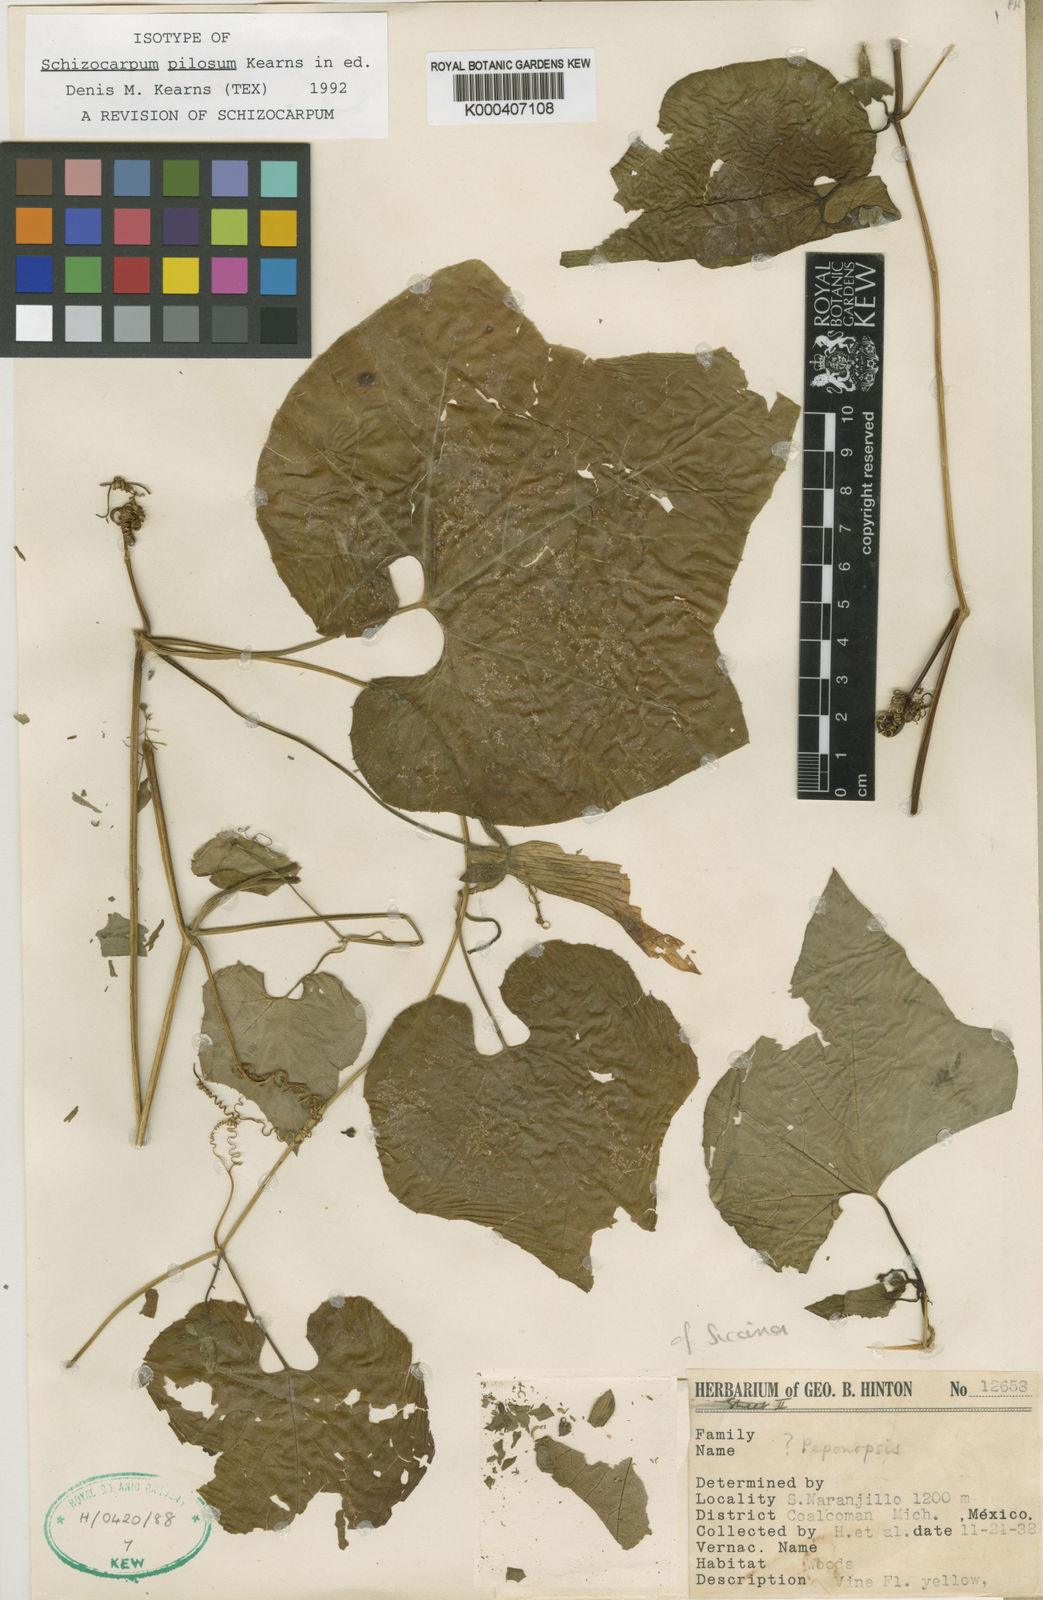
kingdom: Plantae
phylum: Tracheophyta
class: Magnoliopsida
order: Cucurbitales
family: Cucurbitaceae
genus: Schizocarpum
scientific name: Schizocarpum pilosum
